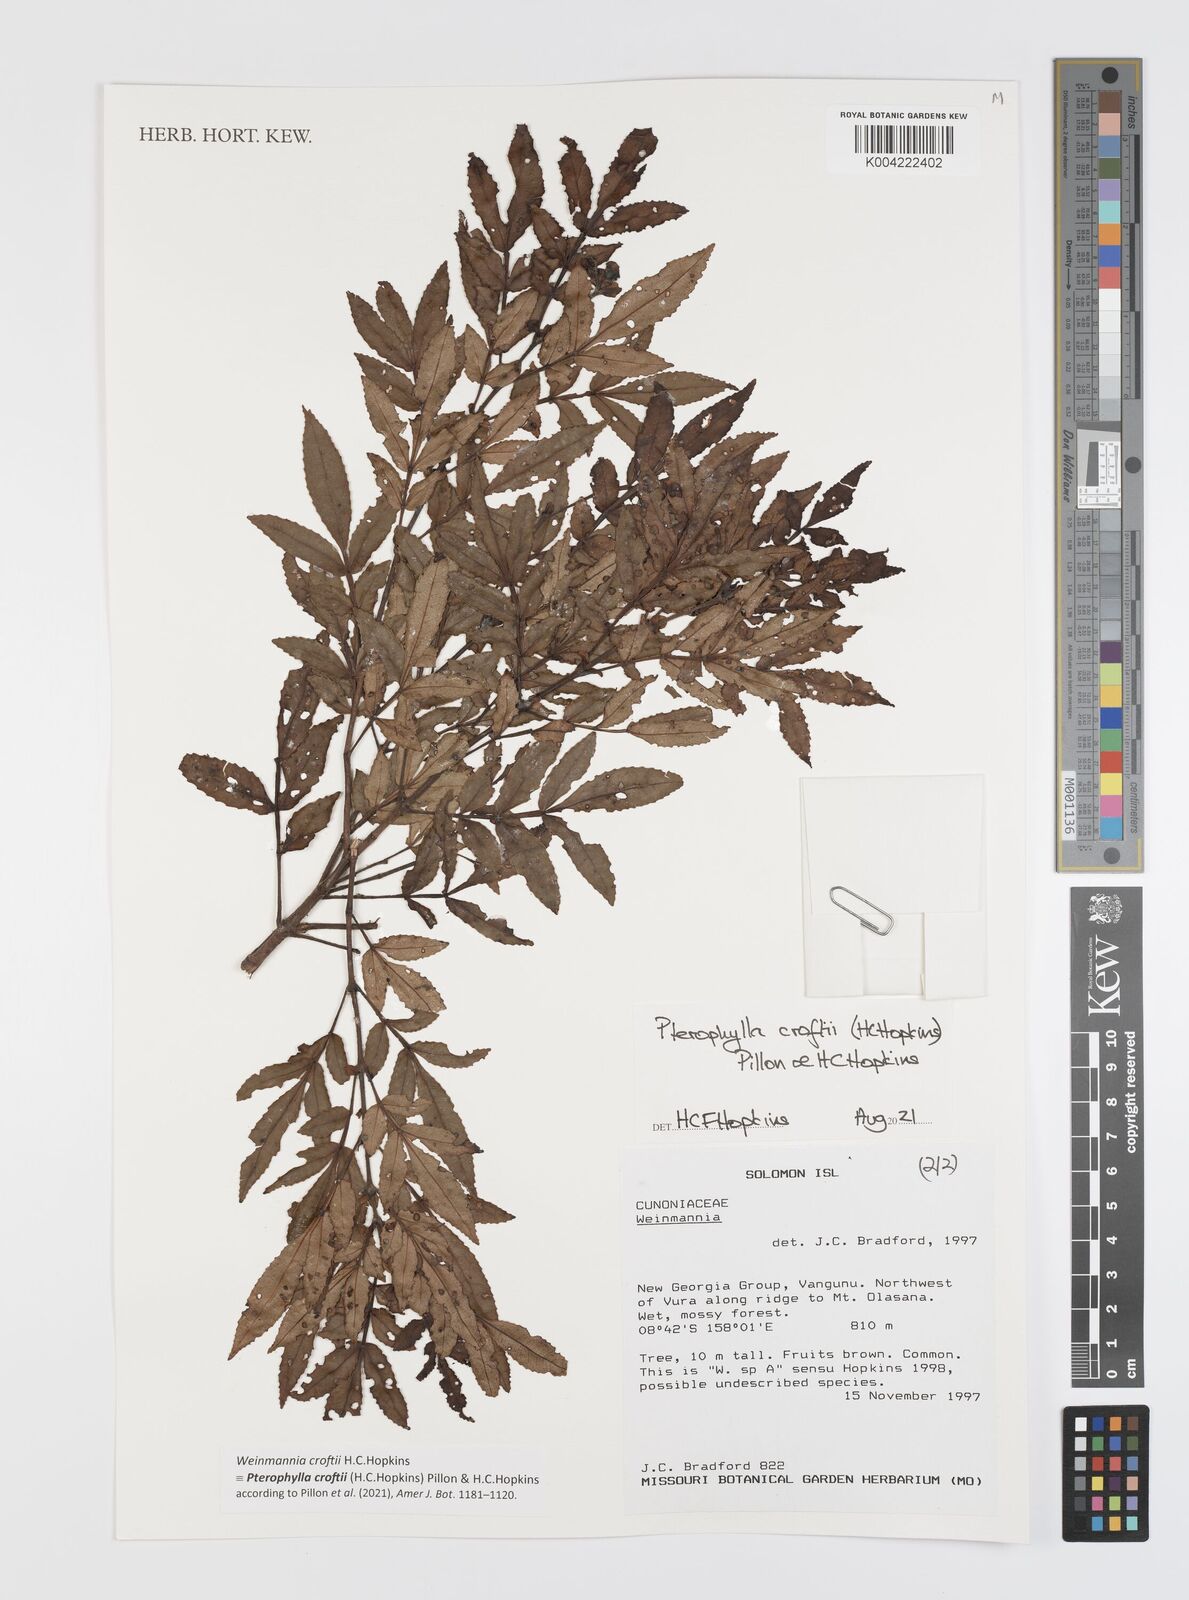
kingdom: Plantae
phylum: Tracheophyta
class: Magnoliopsida
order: Oxalidales
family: Cunoniaceae
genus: Pterophylla
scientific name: Pterophylla croftii
